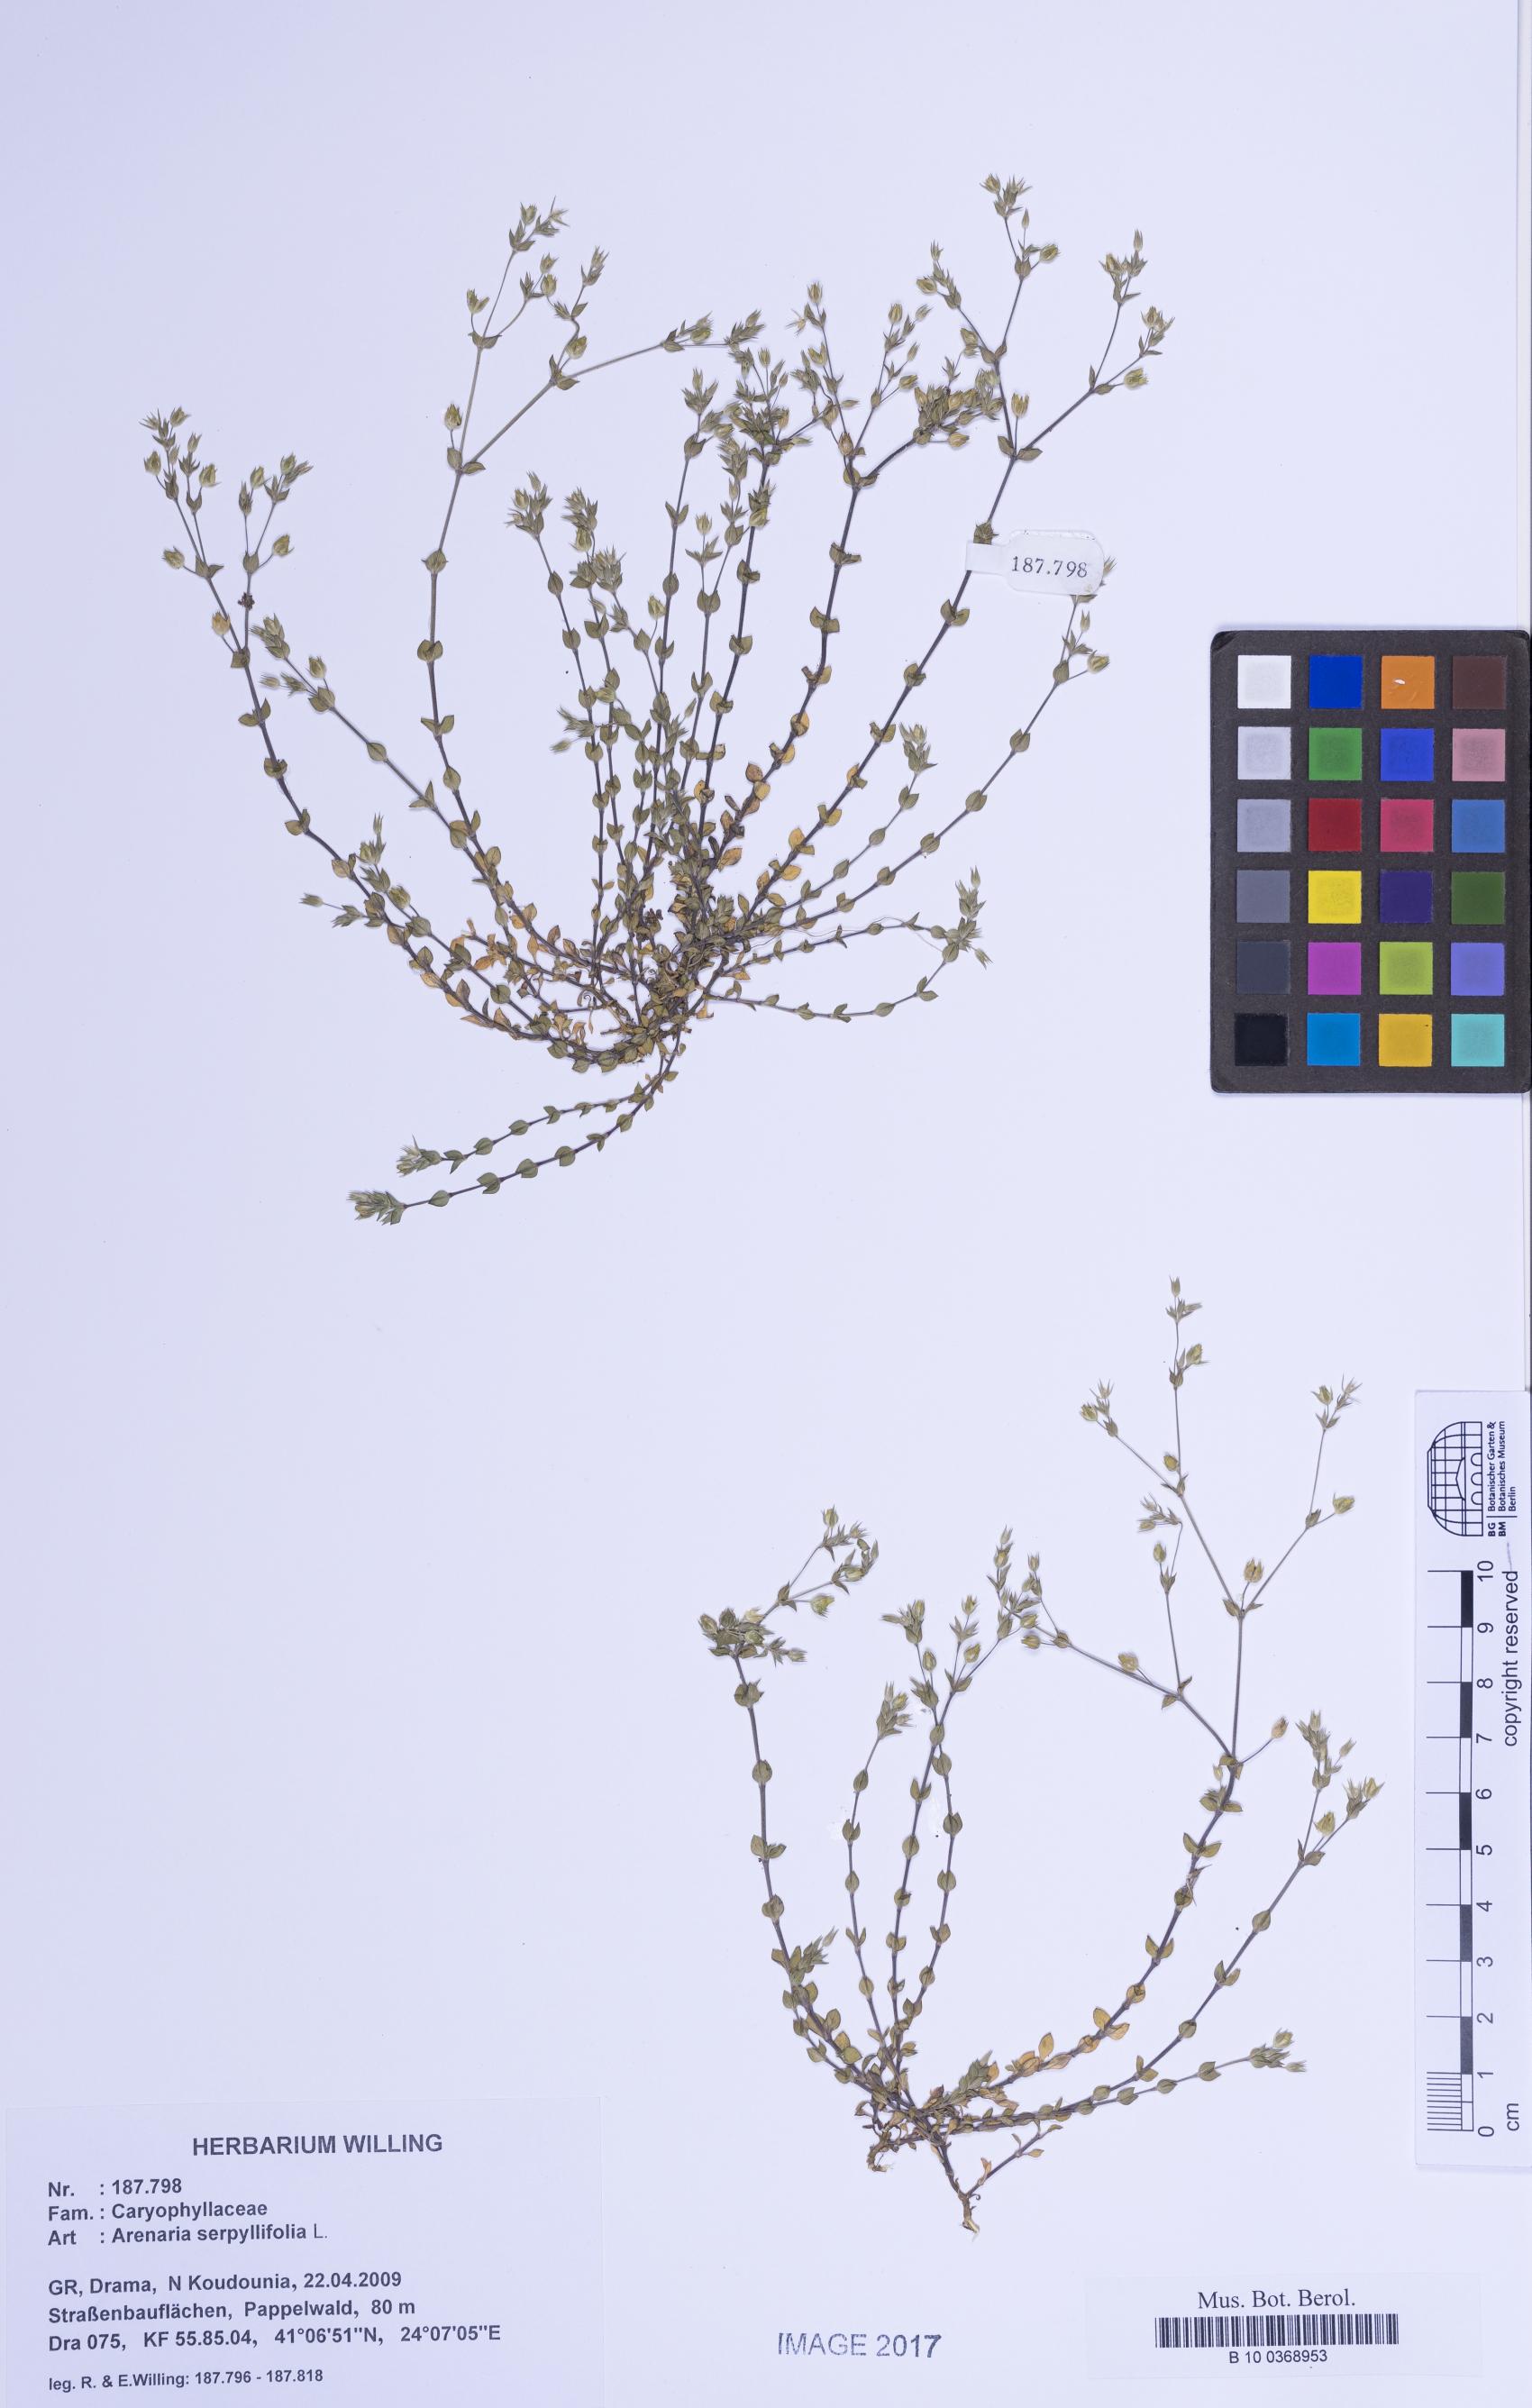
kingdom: Plantae
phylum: Tracheophyta
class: Magnoliopsida
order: Caryophyllales
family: Caryophyllaceae
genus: Arenaria
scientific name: Arenaria serpyllifolia
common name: Thyme-leaved sandwort
